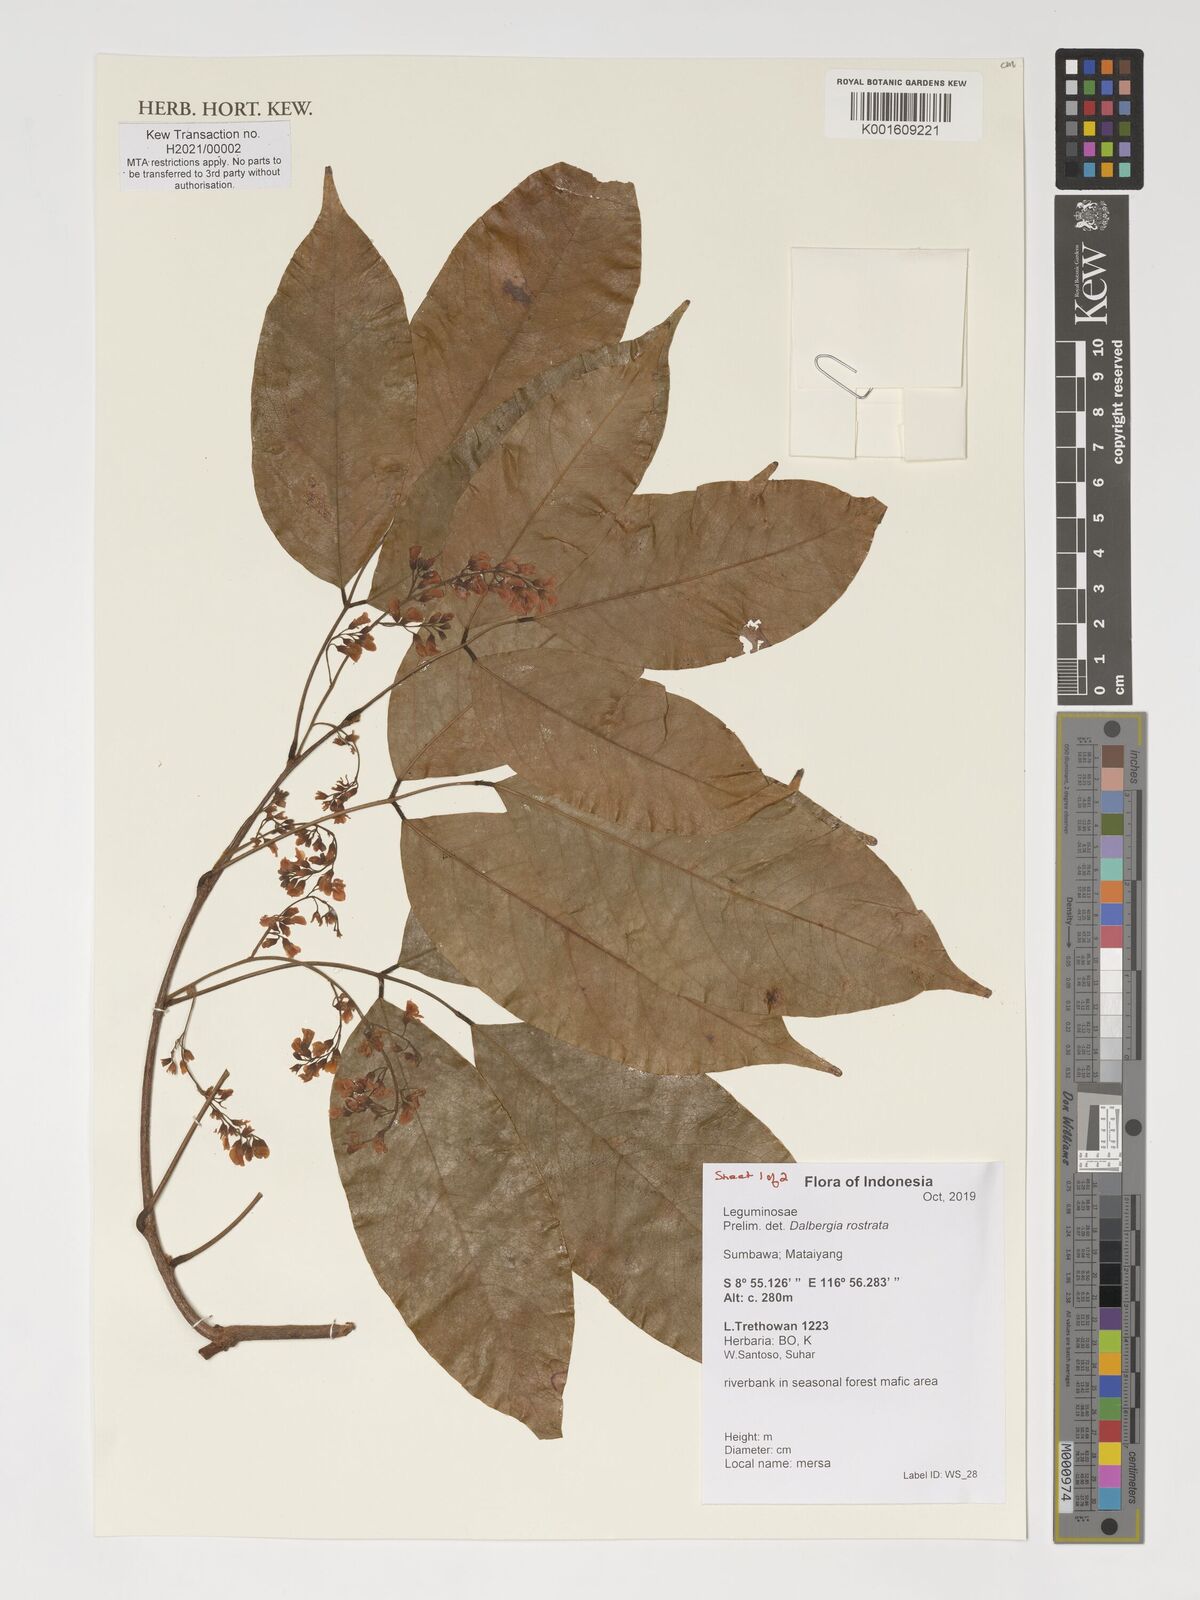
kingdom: Plantae
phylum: Tracheophyta
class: Magnoliopsida
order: Fabales
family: Fabaceae
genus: Dalbergia
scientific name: Dalbergia rostrata
